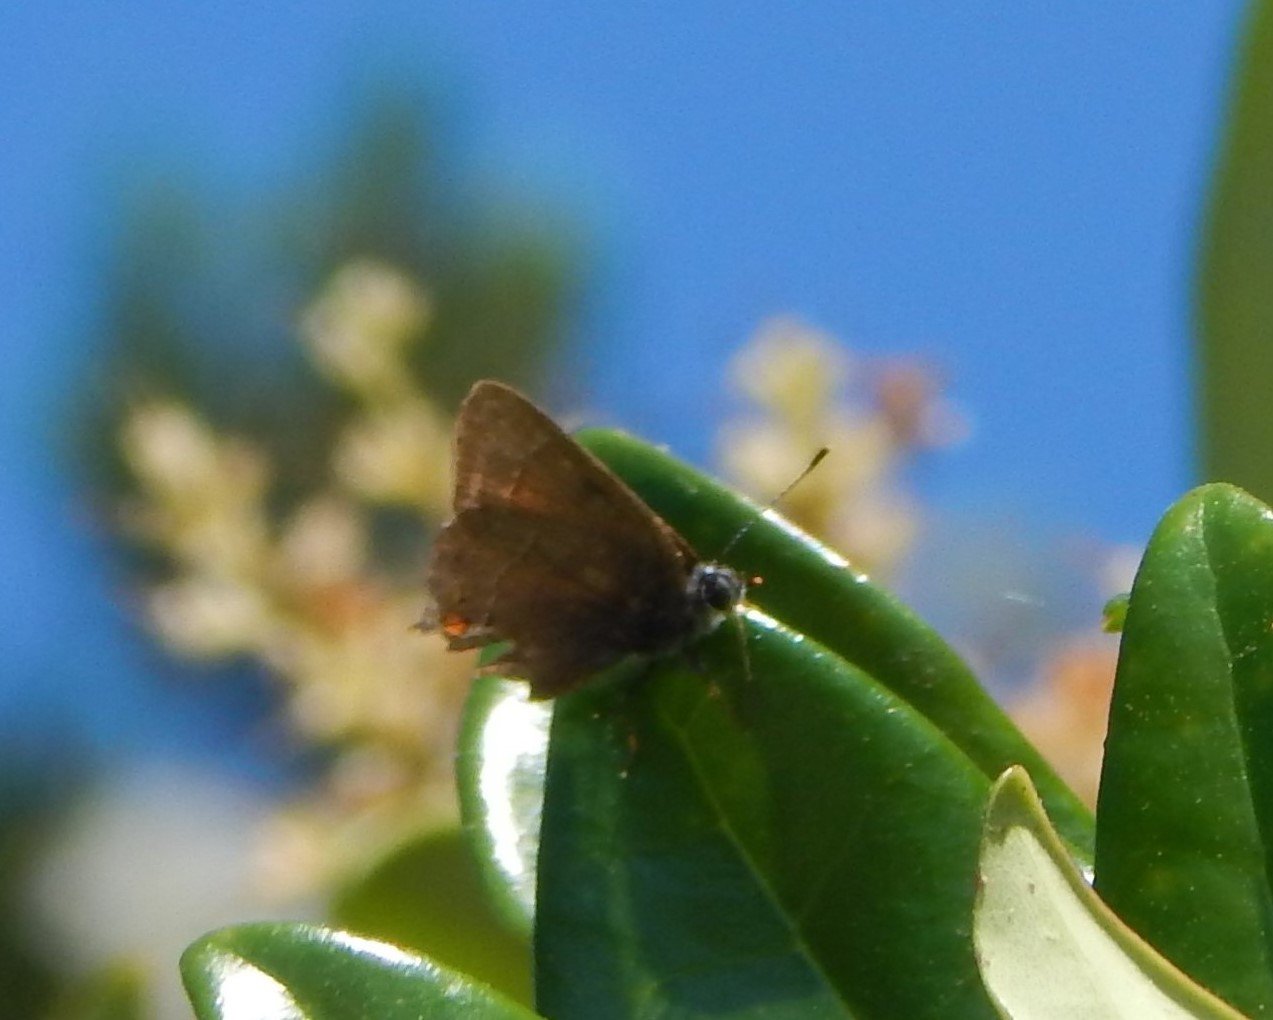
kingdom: Animalia
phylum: Arthropoda
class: Insecta
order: Lepidoptera
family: Lycaenidae
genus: Parrhasius
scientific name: Parrhasius
